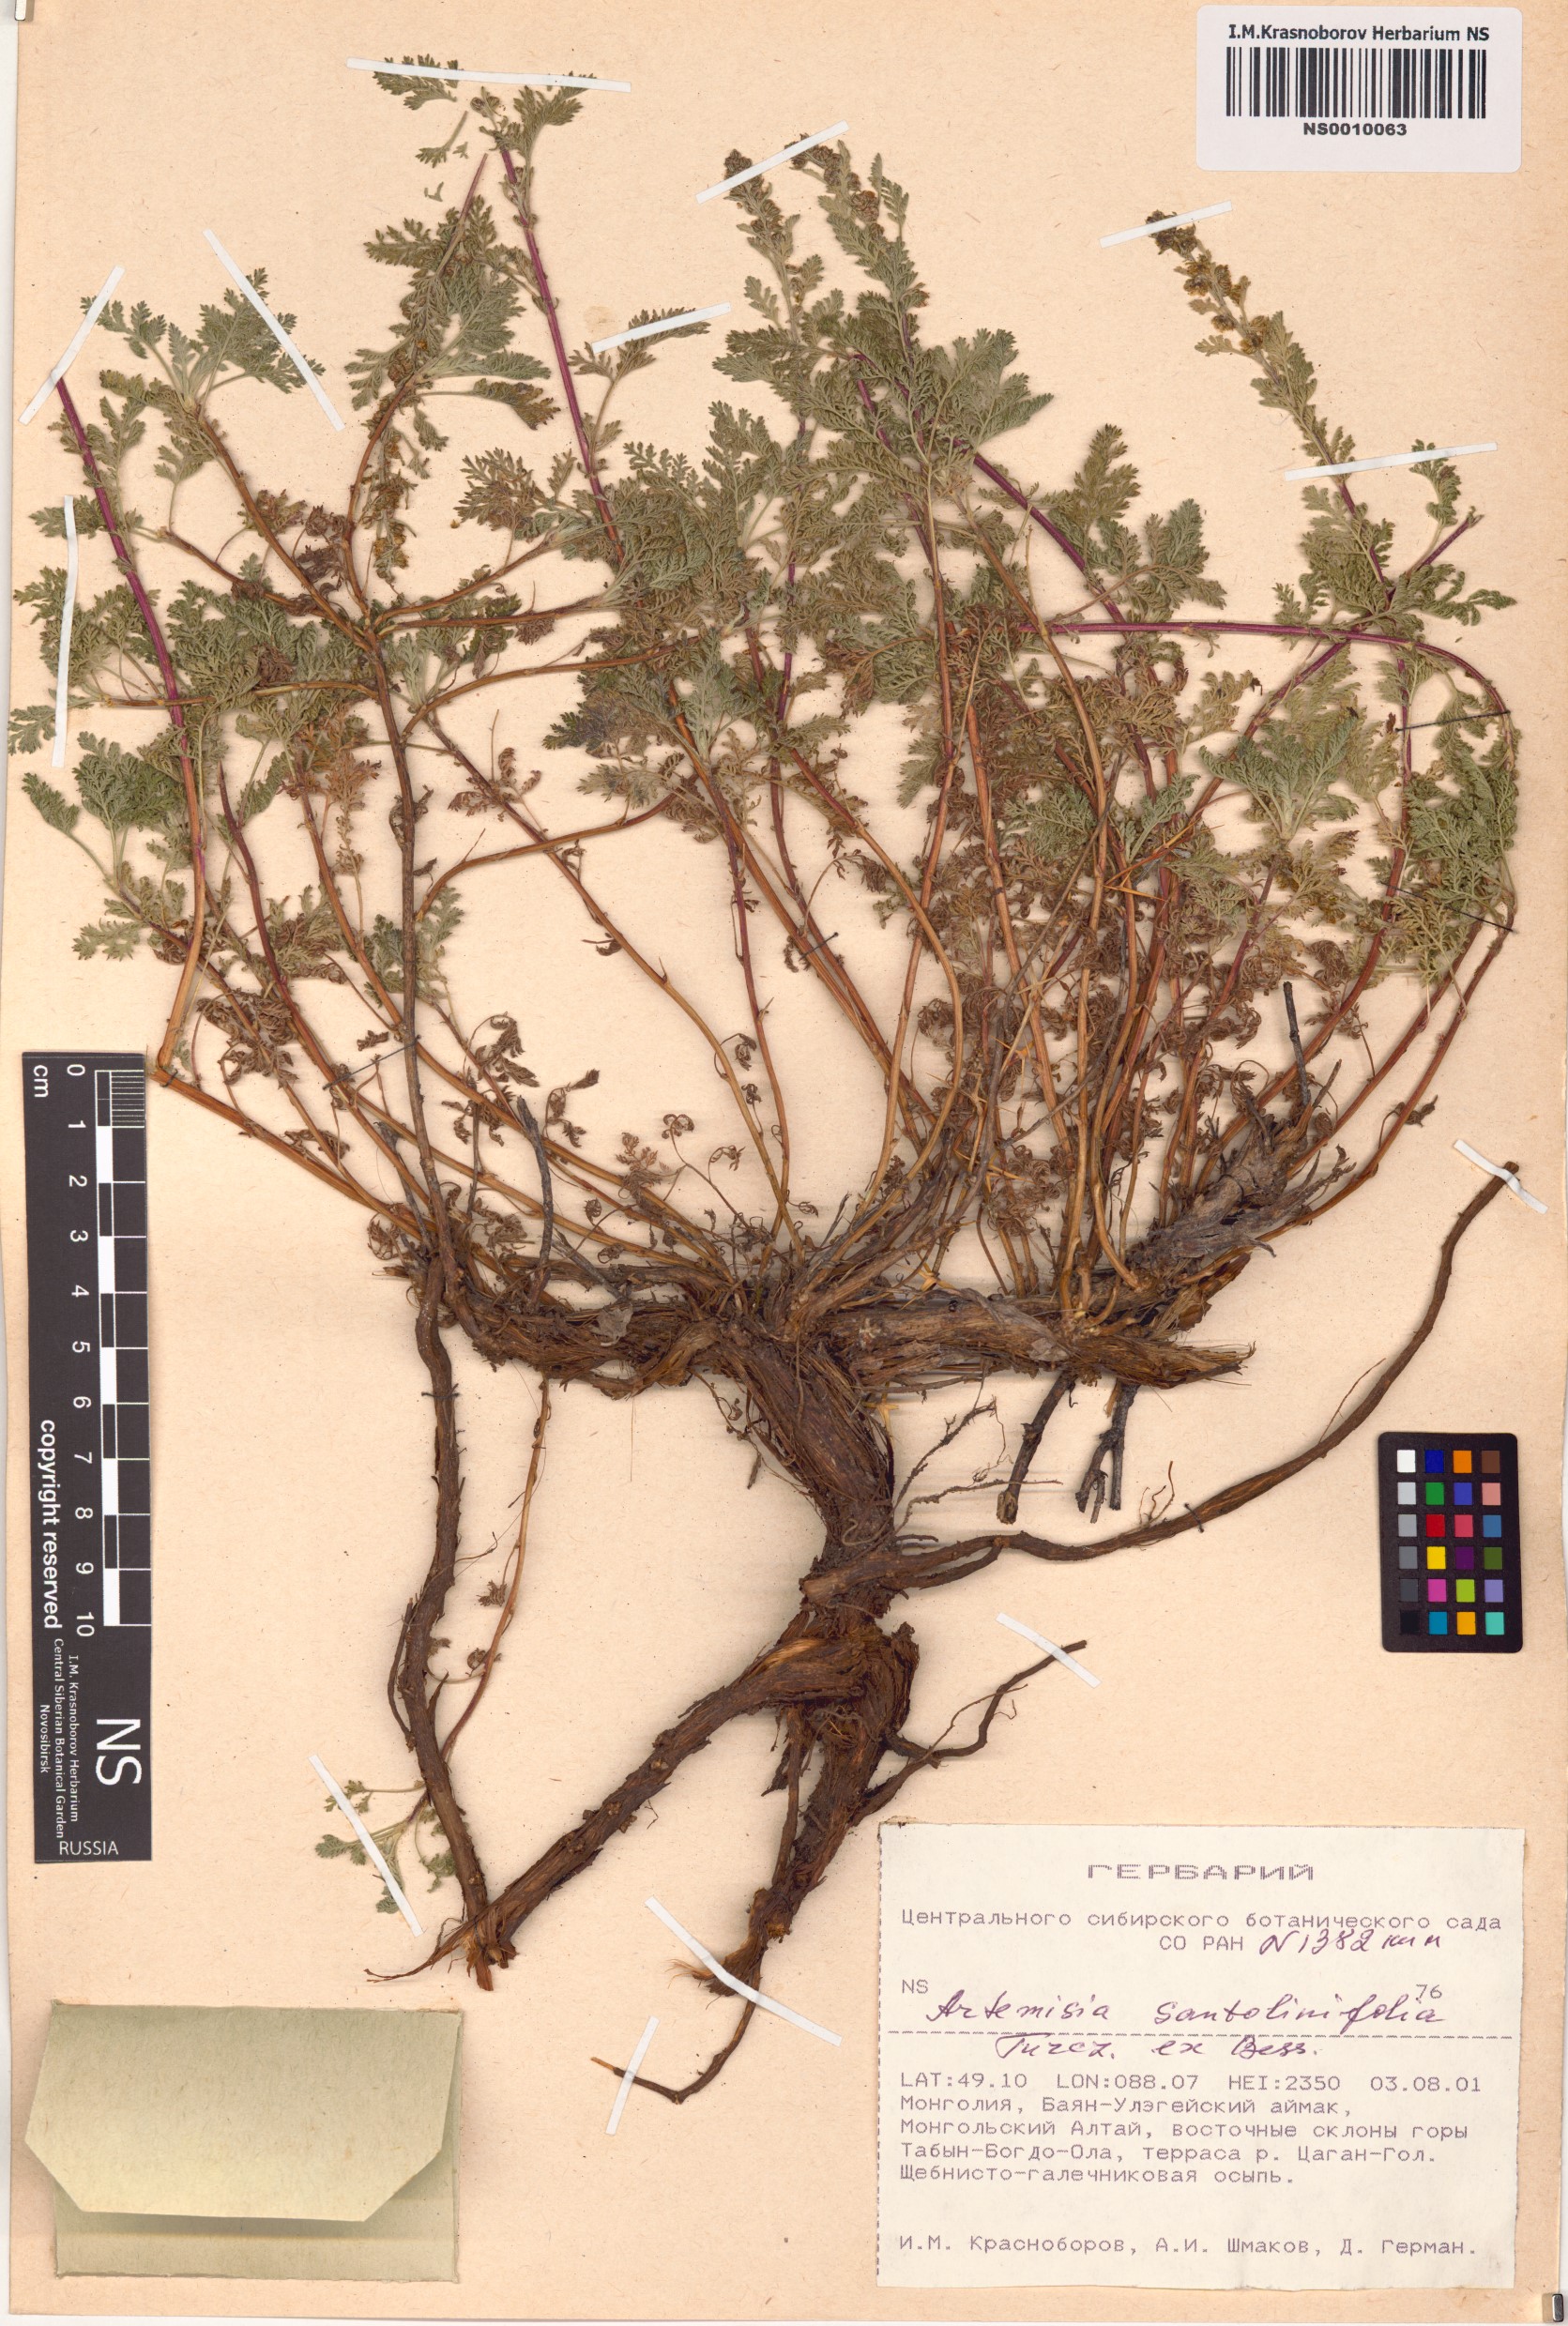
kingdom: Plantae
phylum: Tracheophyta
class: Magnoliopsida
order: Asterales
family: Asteraceae
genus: Artemisia
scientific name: Artemisia stechmanniana
